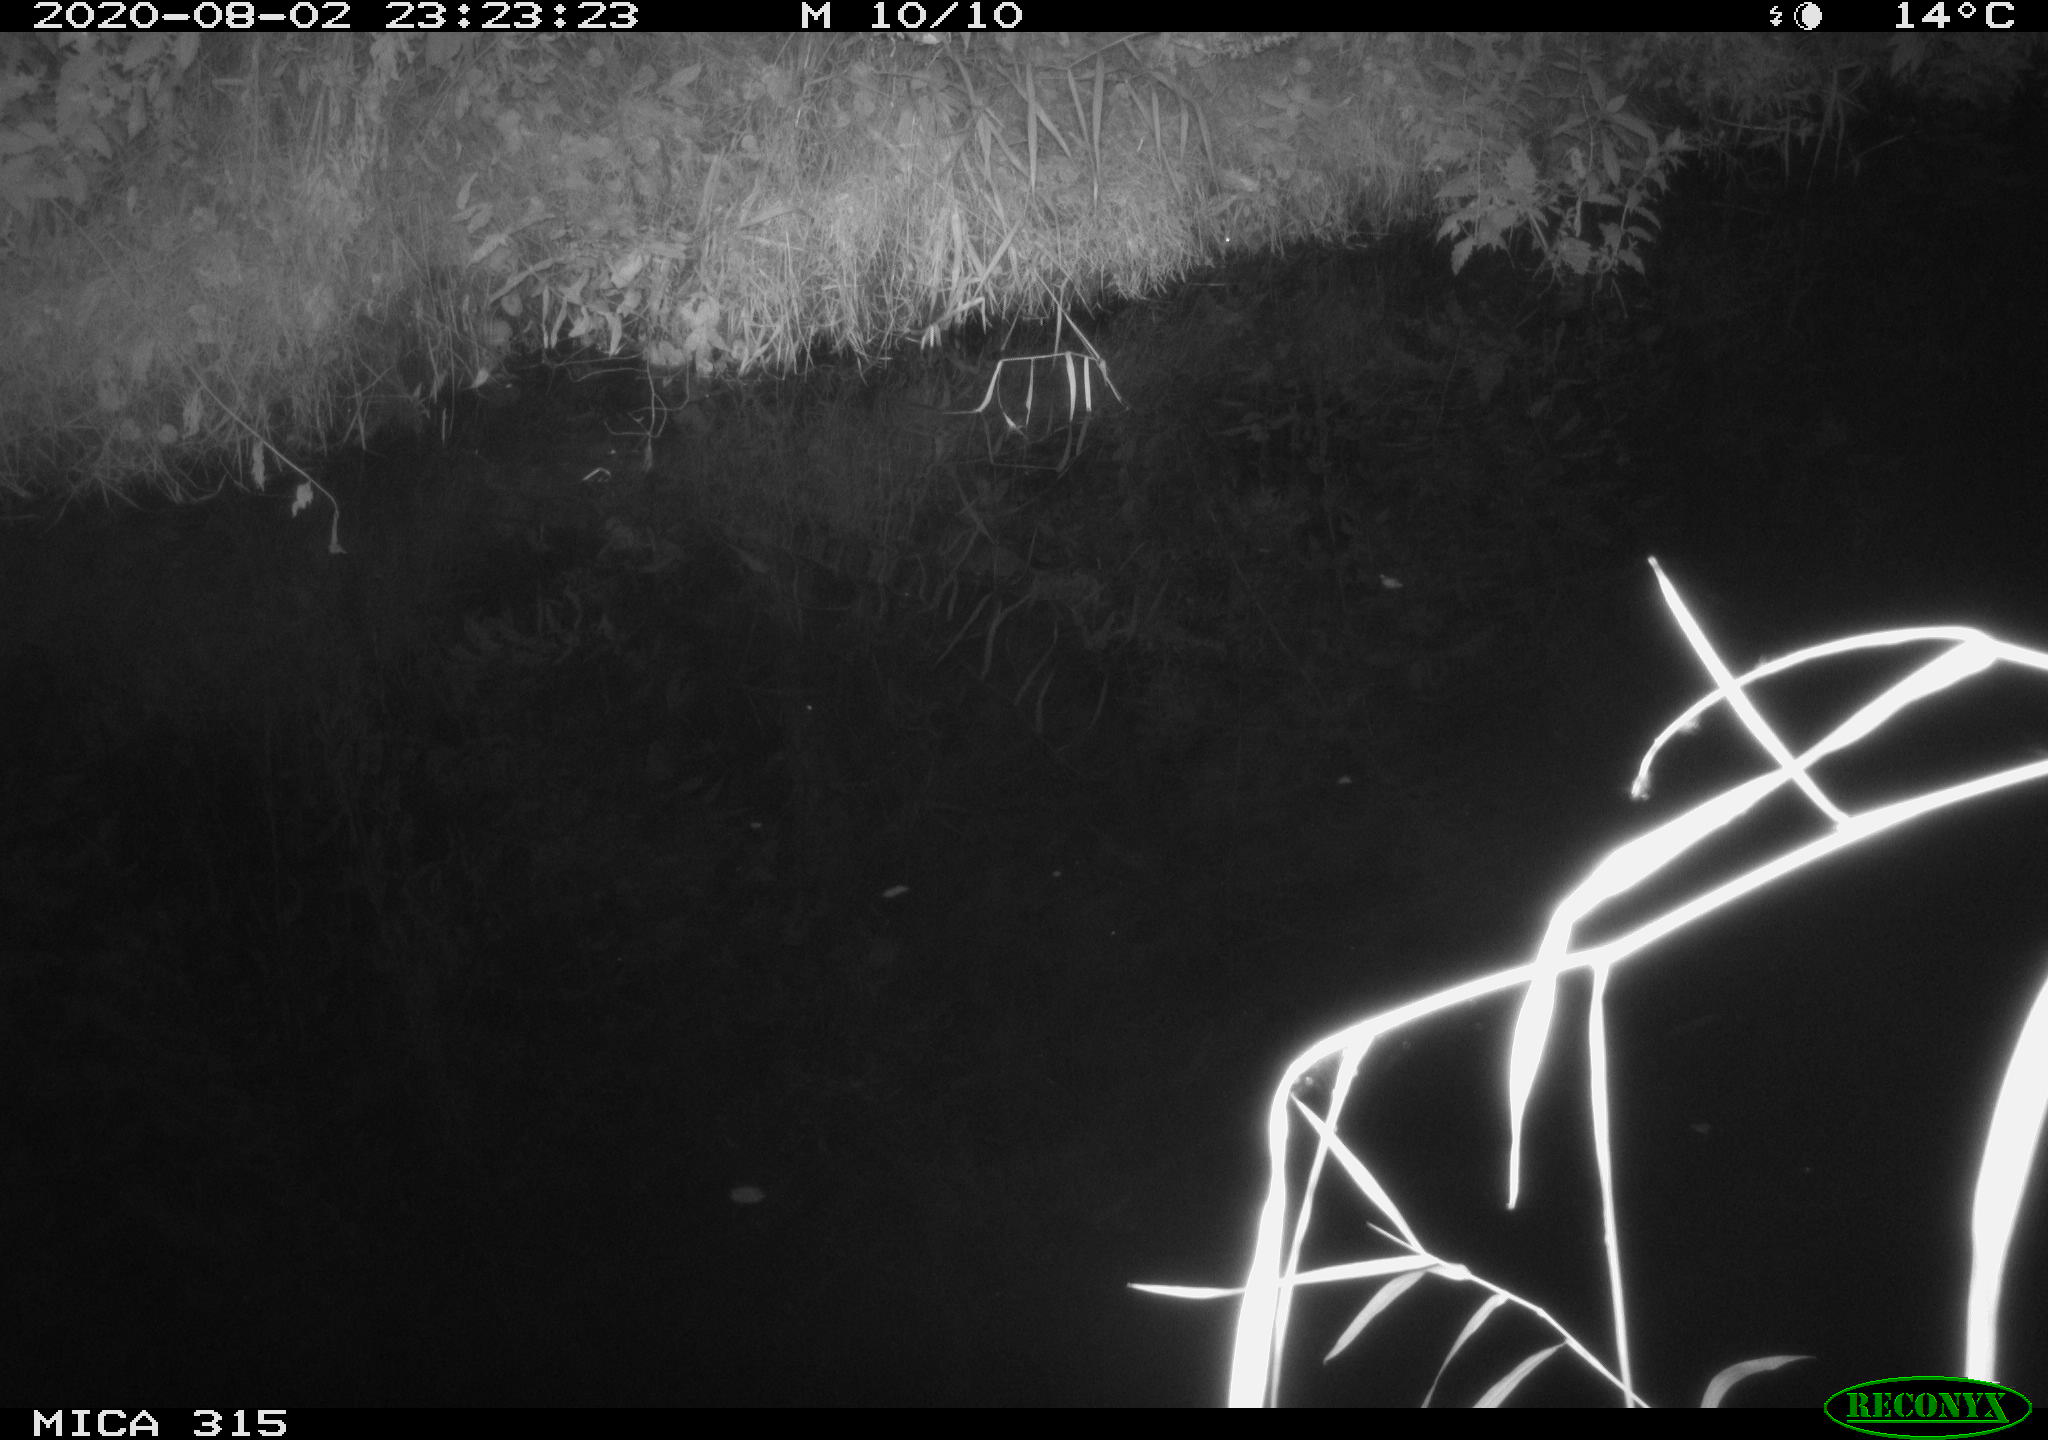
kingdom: Animalia
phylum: Chordata
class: Aves
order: Anseriformes
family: Anatidae
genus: Anas
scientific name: Anas platyrhynchos
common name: Mallard
